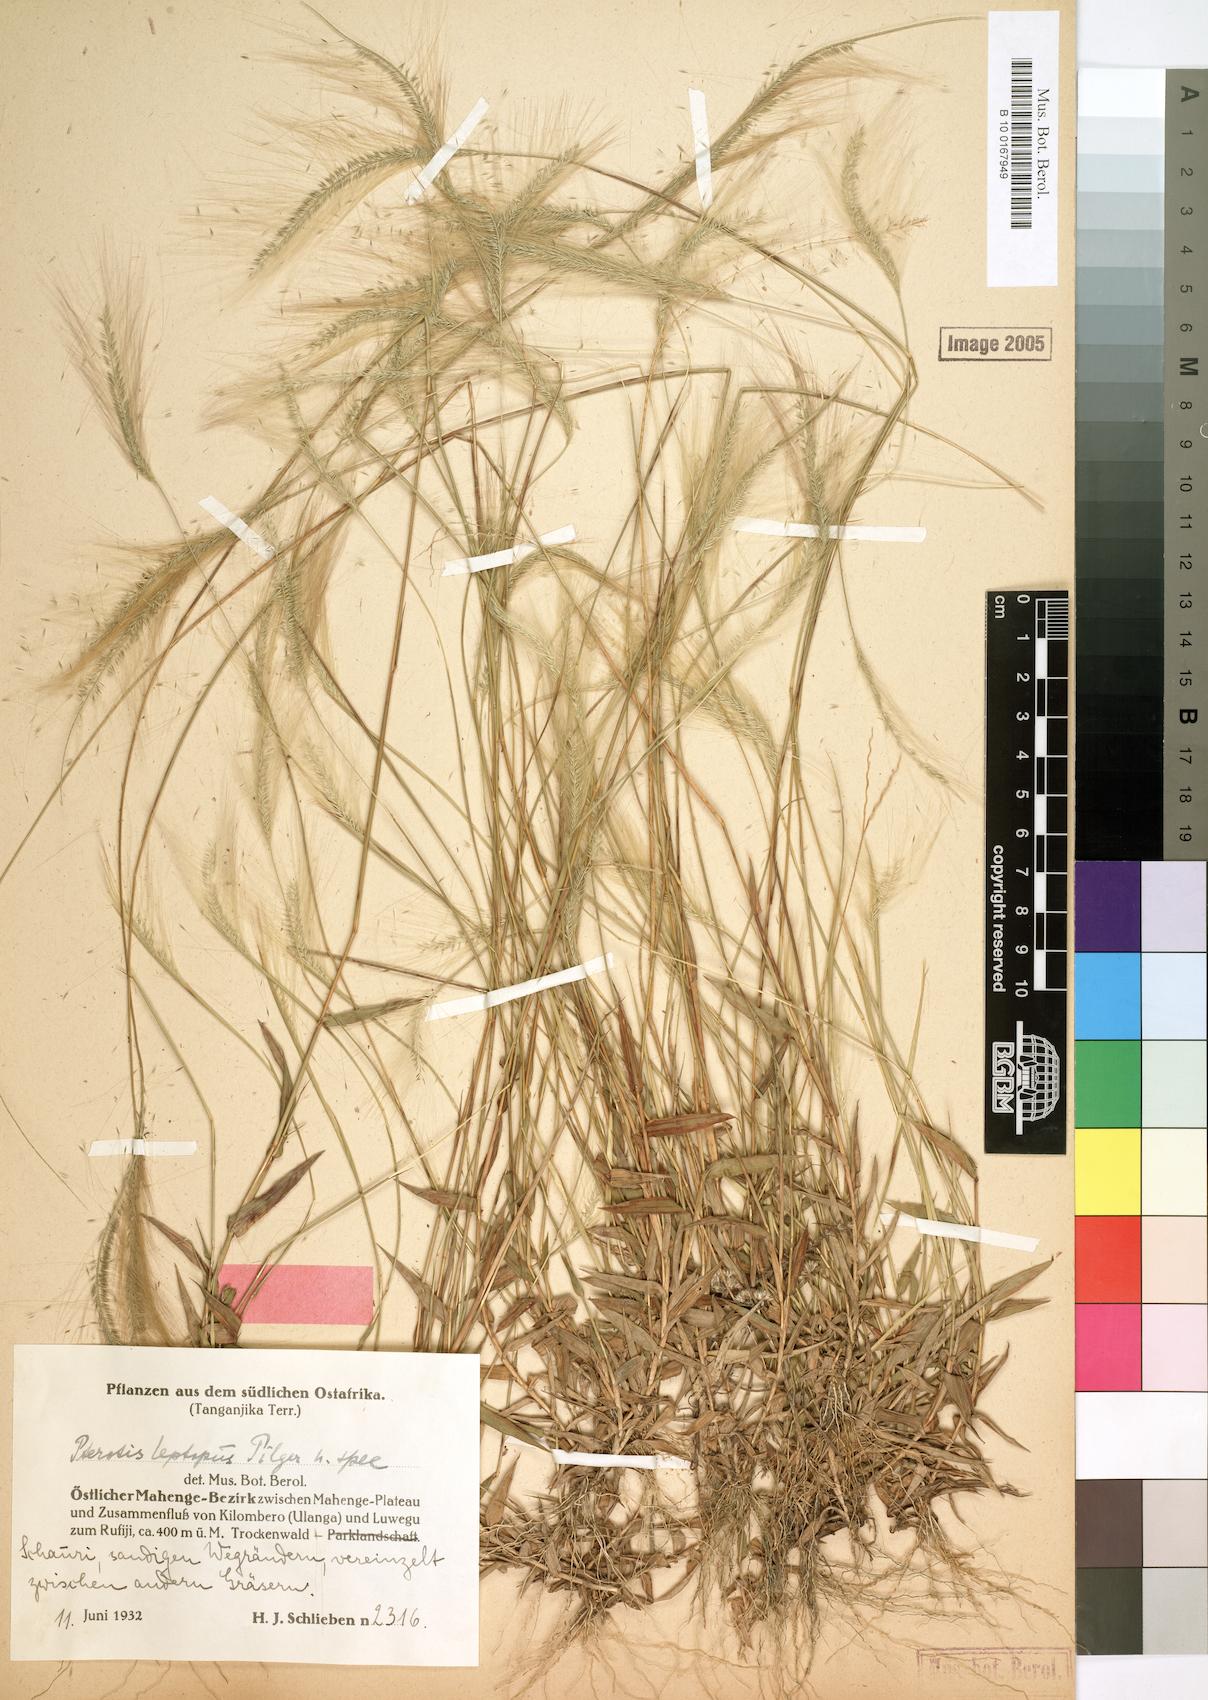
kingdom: Plantae
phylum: Tracheophyta
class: Liliopsida
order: Poales
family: Poaceae
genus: Perotis
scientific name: Perotis leptopus
